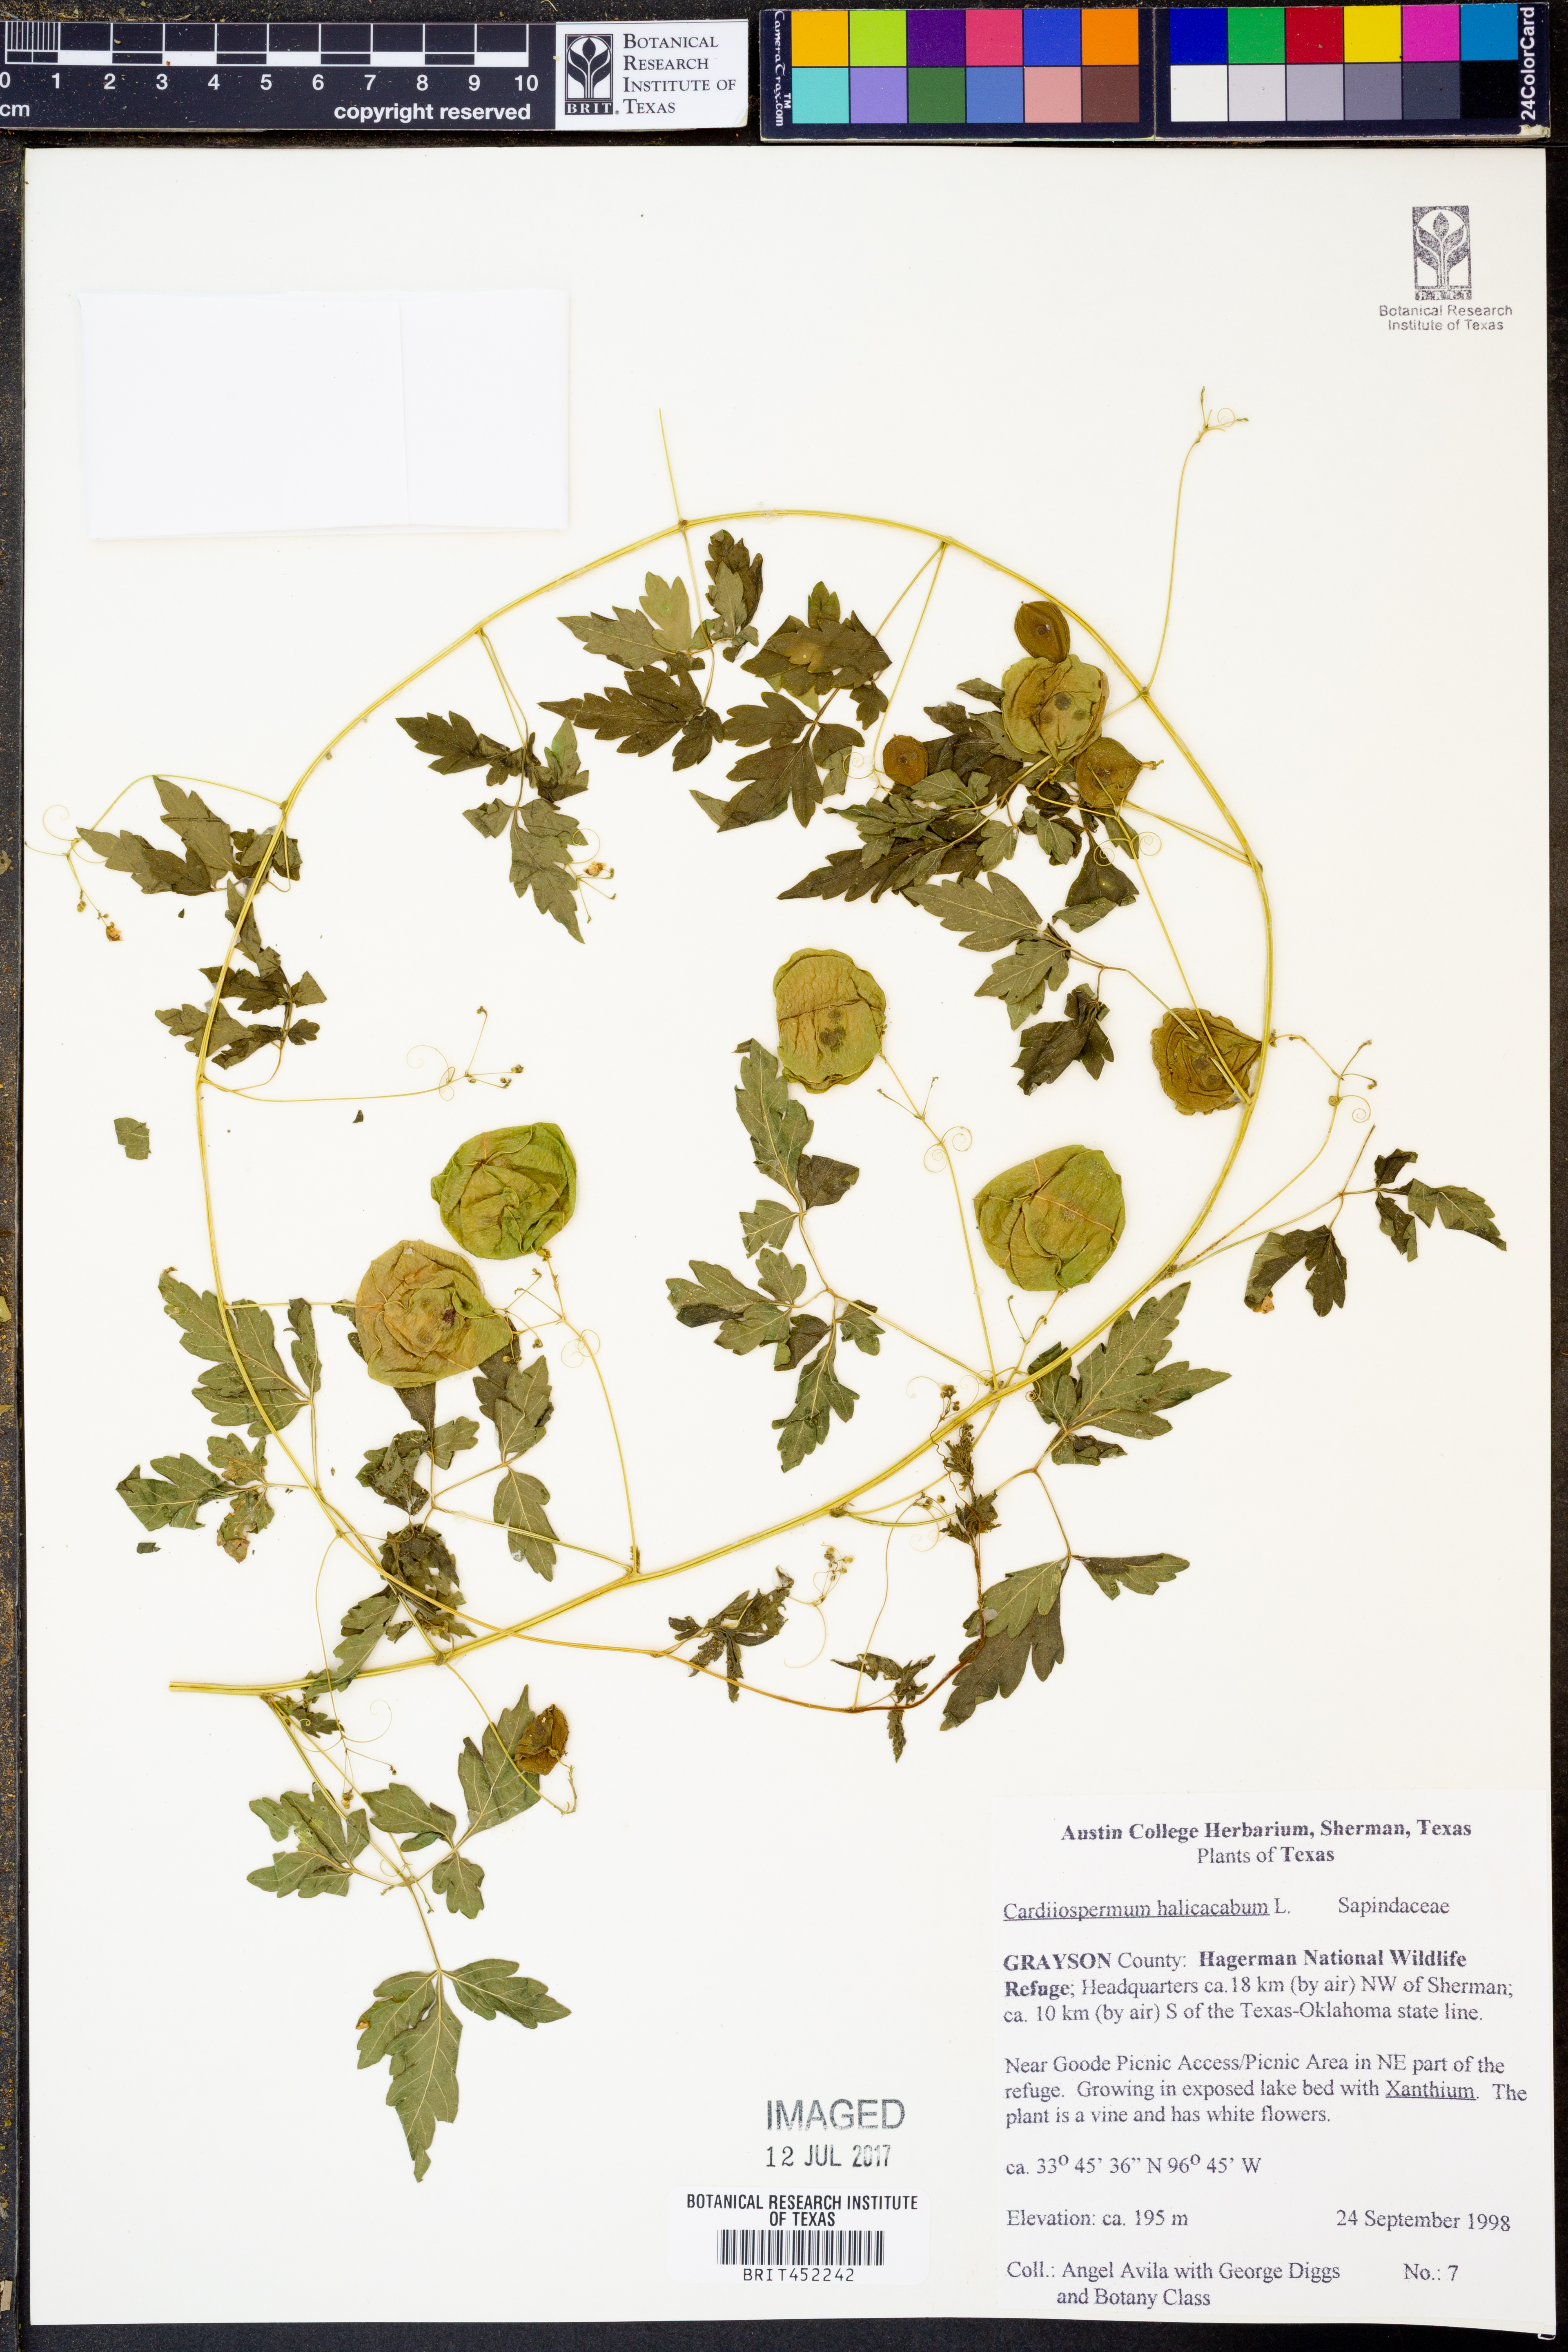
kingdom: Plantae
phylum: Tracheophyta
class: Magnoliopsida
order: Sapindales
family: Sapindaceae
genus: Cardiospermum
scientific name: Cardiospermum halicacabum
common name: Balloon vine
